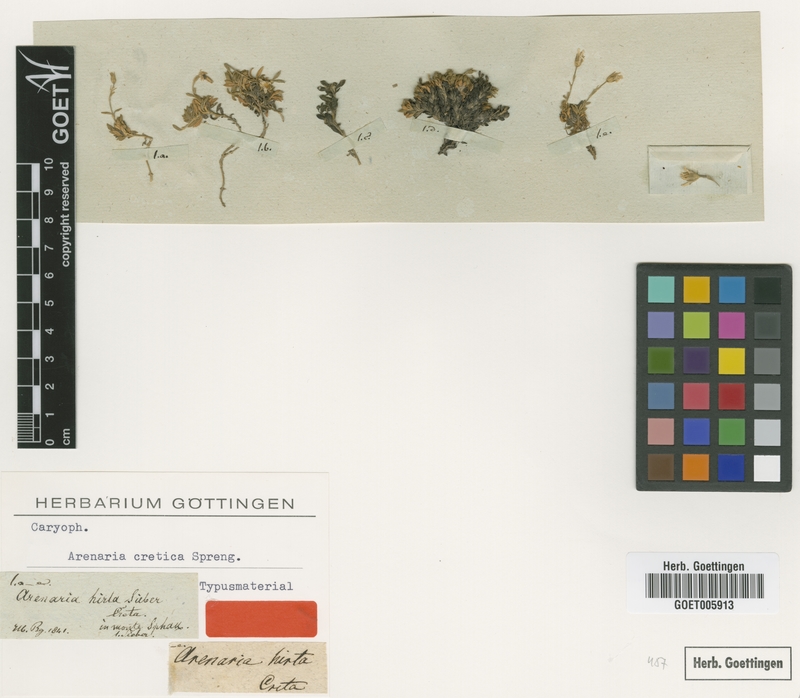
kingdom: Plantae
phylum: Tracheophyta
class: Magnoliopsida
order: Caryophyllales
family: Caryophyllaceae
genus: Arenaria
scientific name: Arenaria cretica
